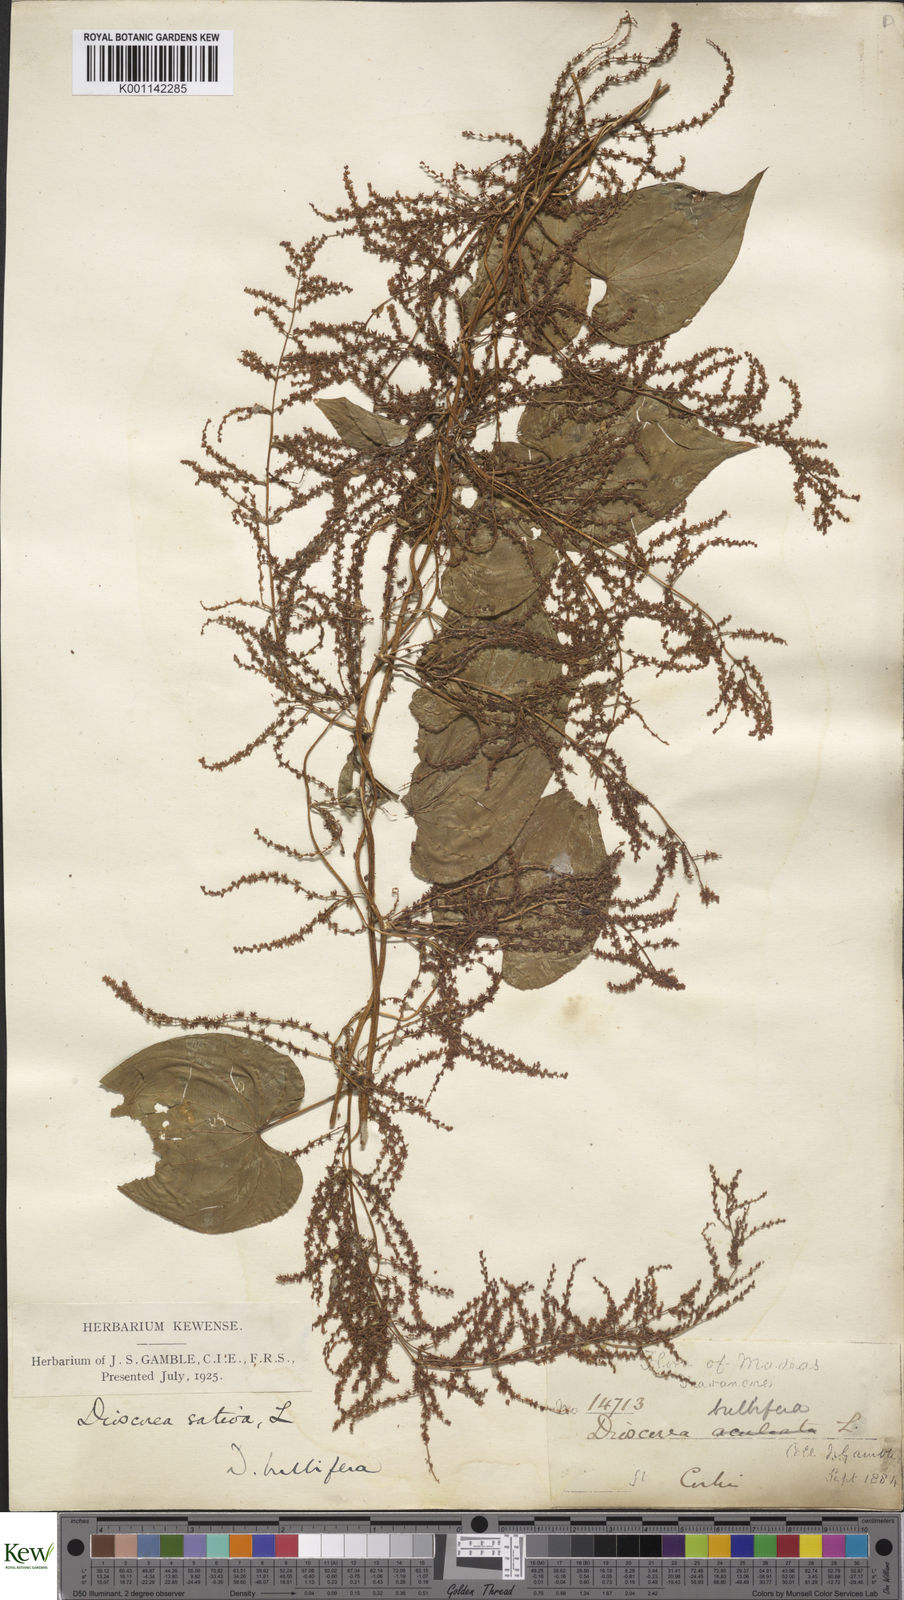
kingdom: Plantae
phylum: Tracheophyta
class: Liliopsida
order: Dioscoreales
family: Dioscoreaceae
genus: Dioscorea
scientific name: Dioscorea bulbifera
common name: Air yam
